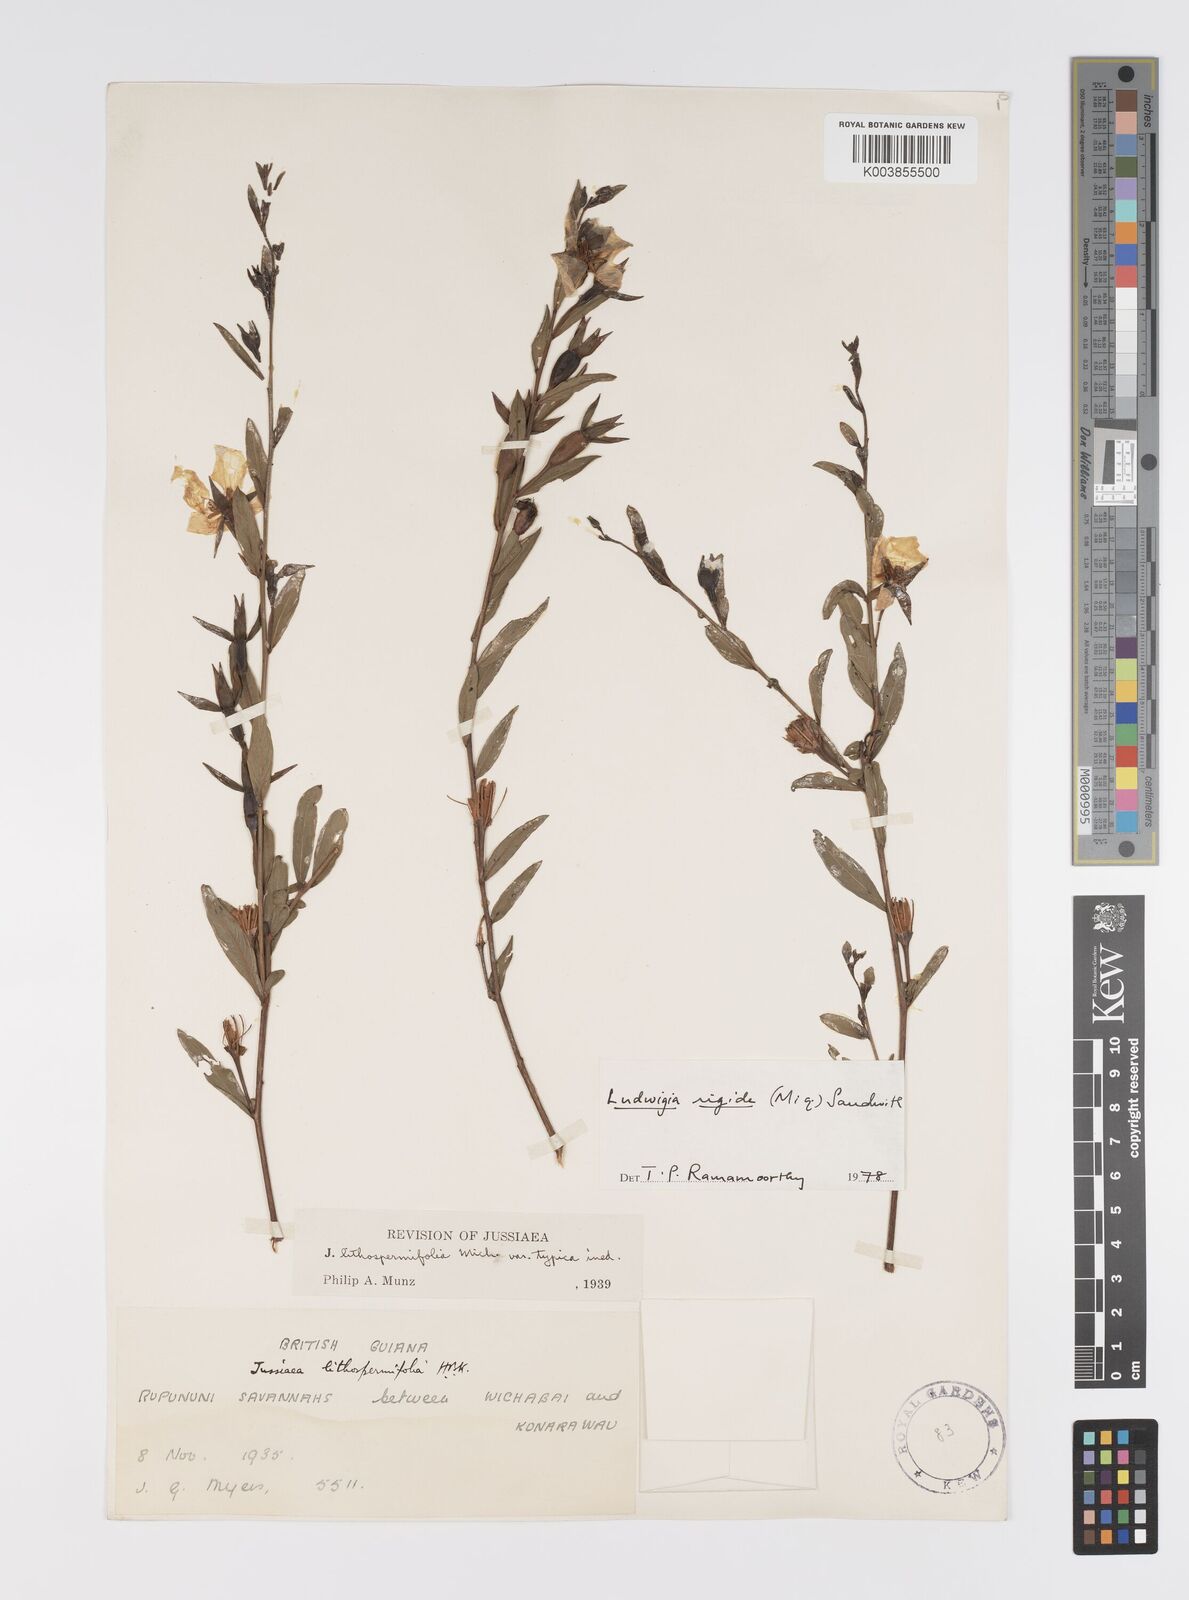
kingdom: Plantae
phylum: Tracheophyta
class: Magnoliopsida
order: Myrtales
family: Onagraceae
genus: Ludwigia
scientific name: Ludwigia rigida
